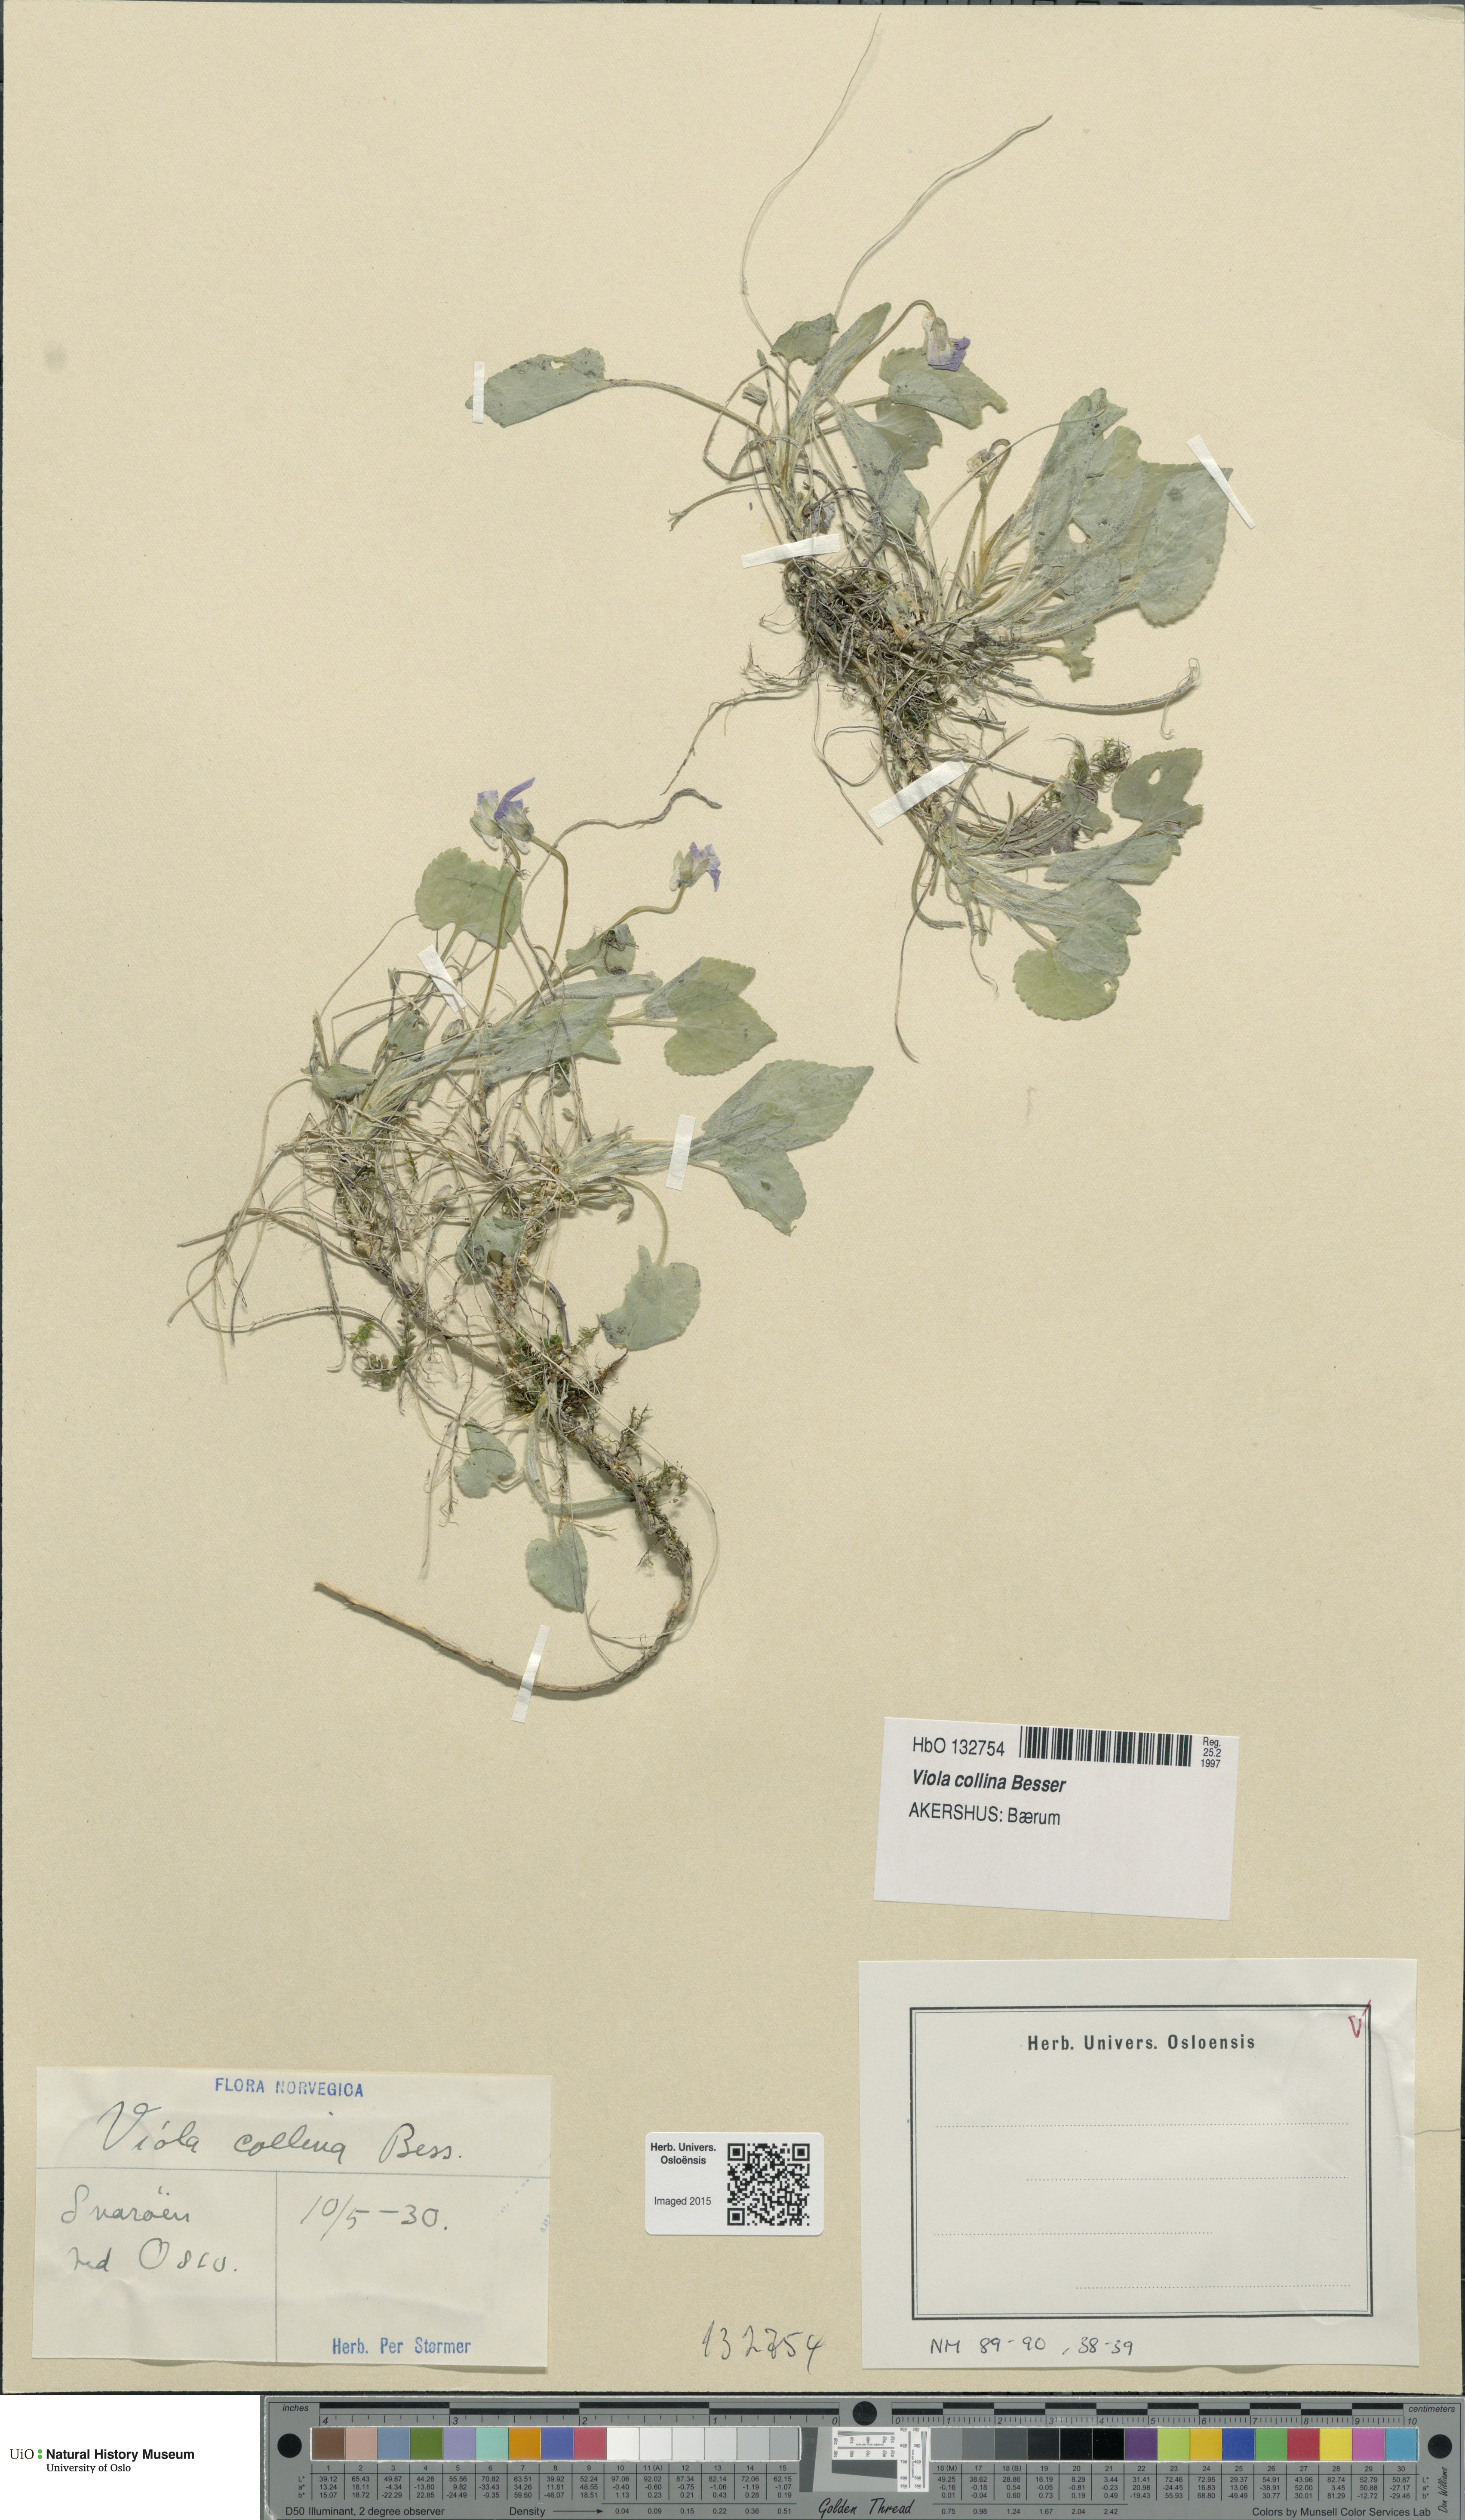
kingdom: Plantae
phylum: Tracheophyta
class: Magnoliopsida
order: Malpighiales
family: Violaceae
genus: Viola
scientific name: Viola collina
